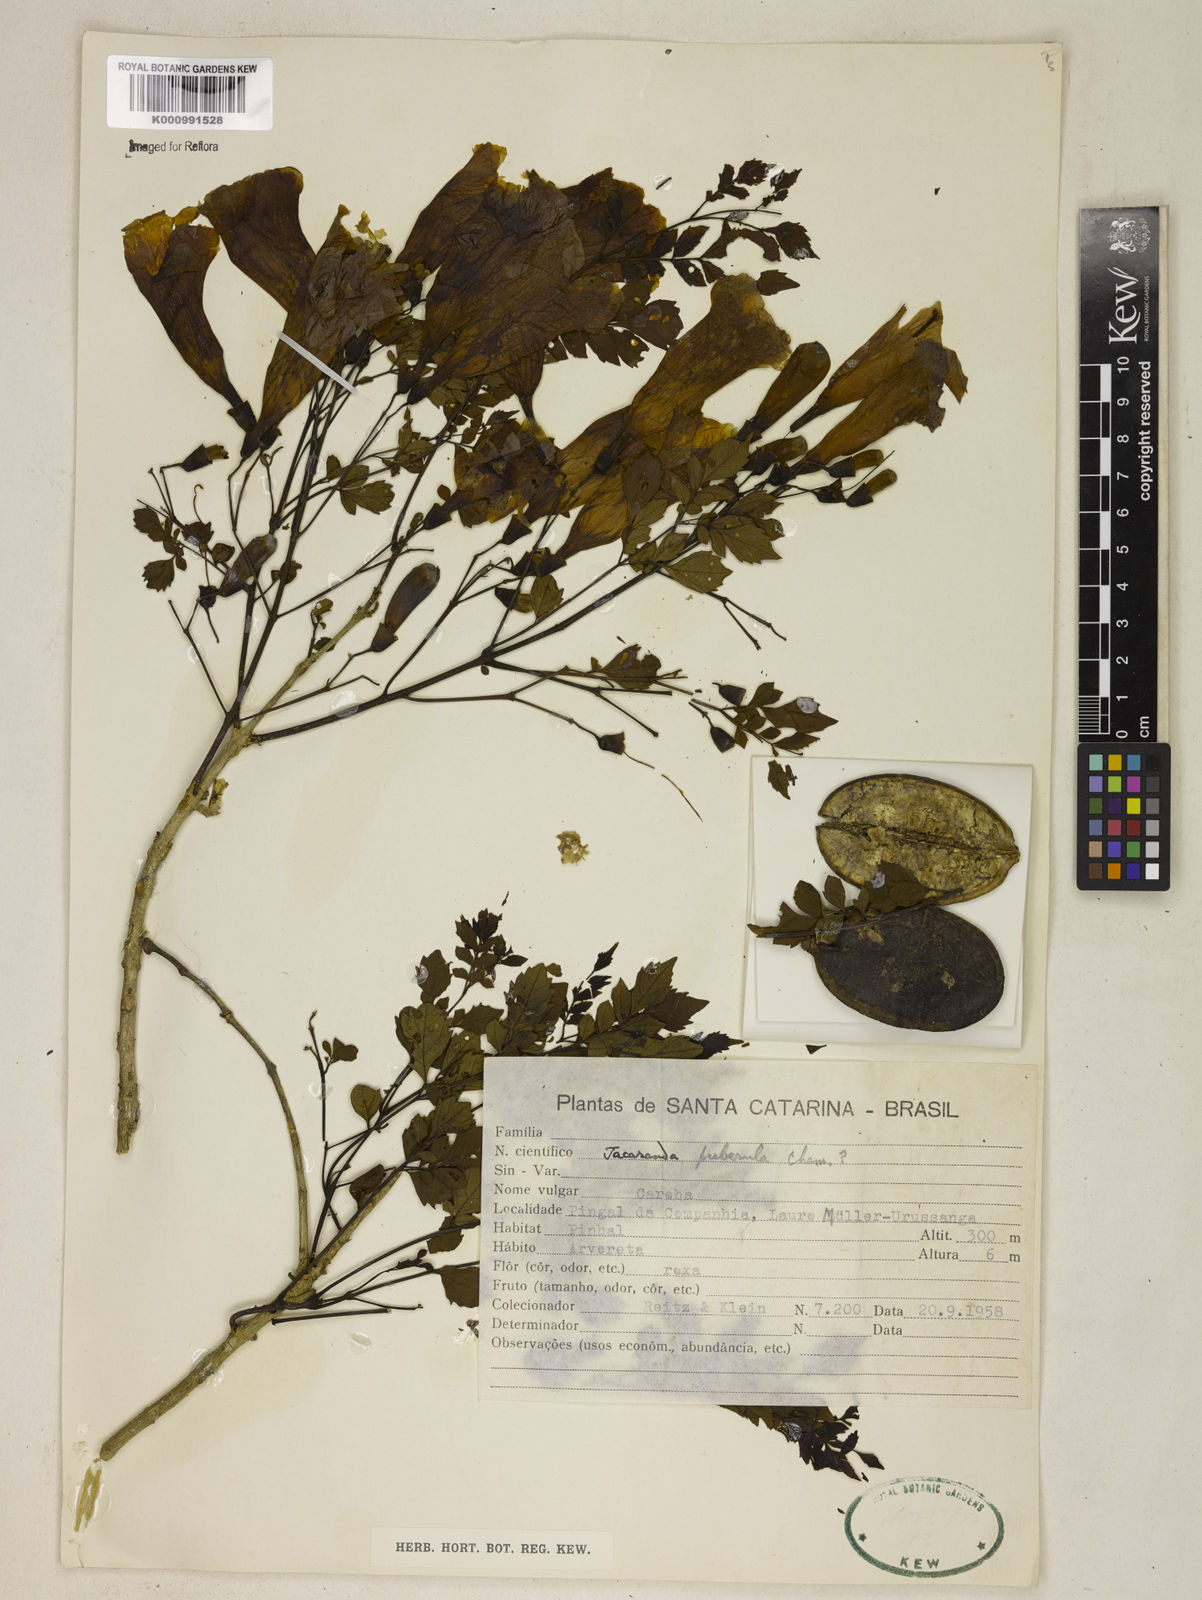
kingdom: Plantae
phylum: Tracheophyta
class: Magnoliopsida
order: Lamiales
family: Bignoniaceae
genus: Jacaranda
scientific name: Jacaranda puberula
